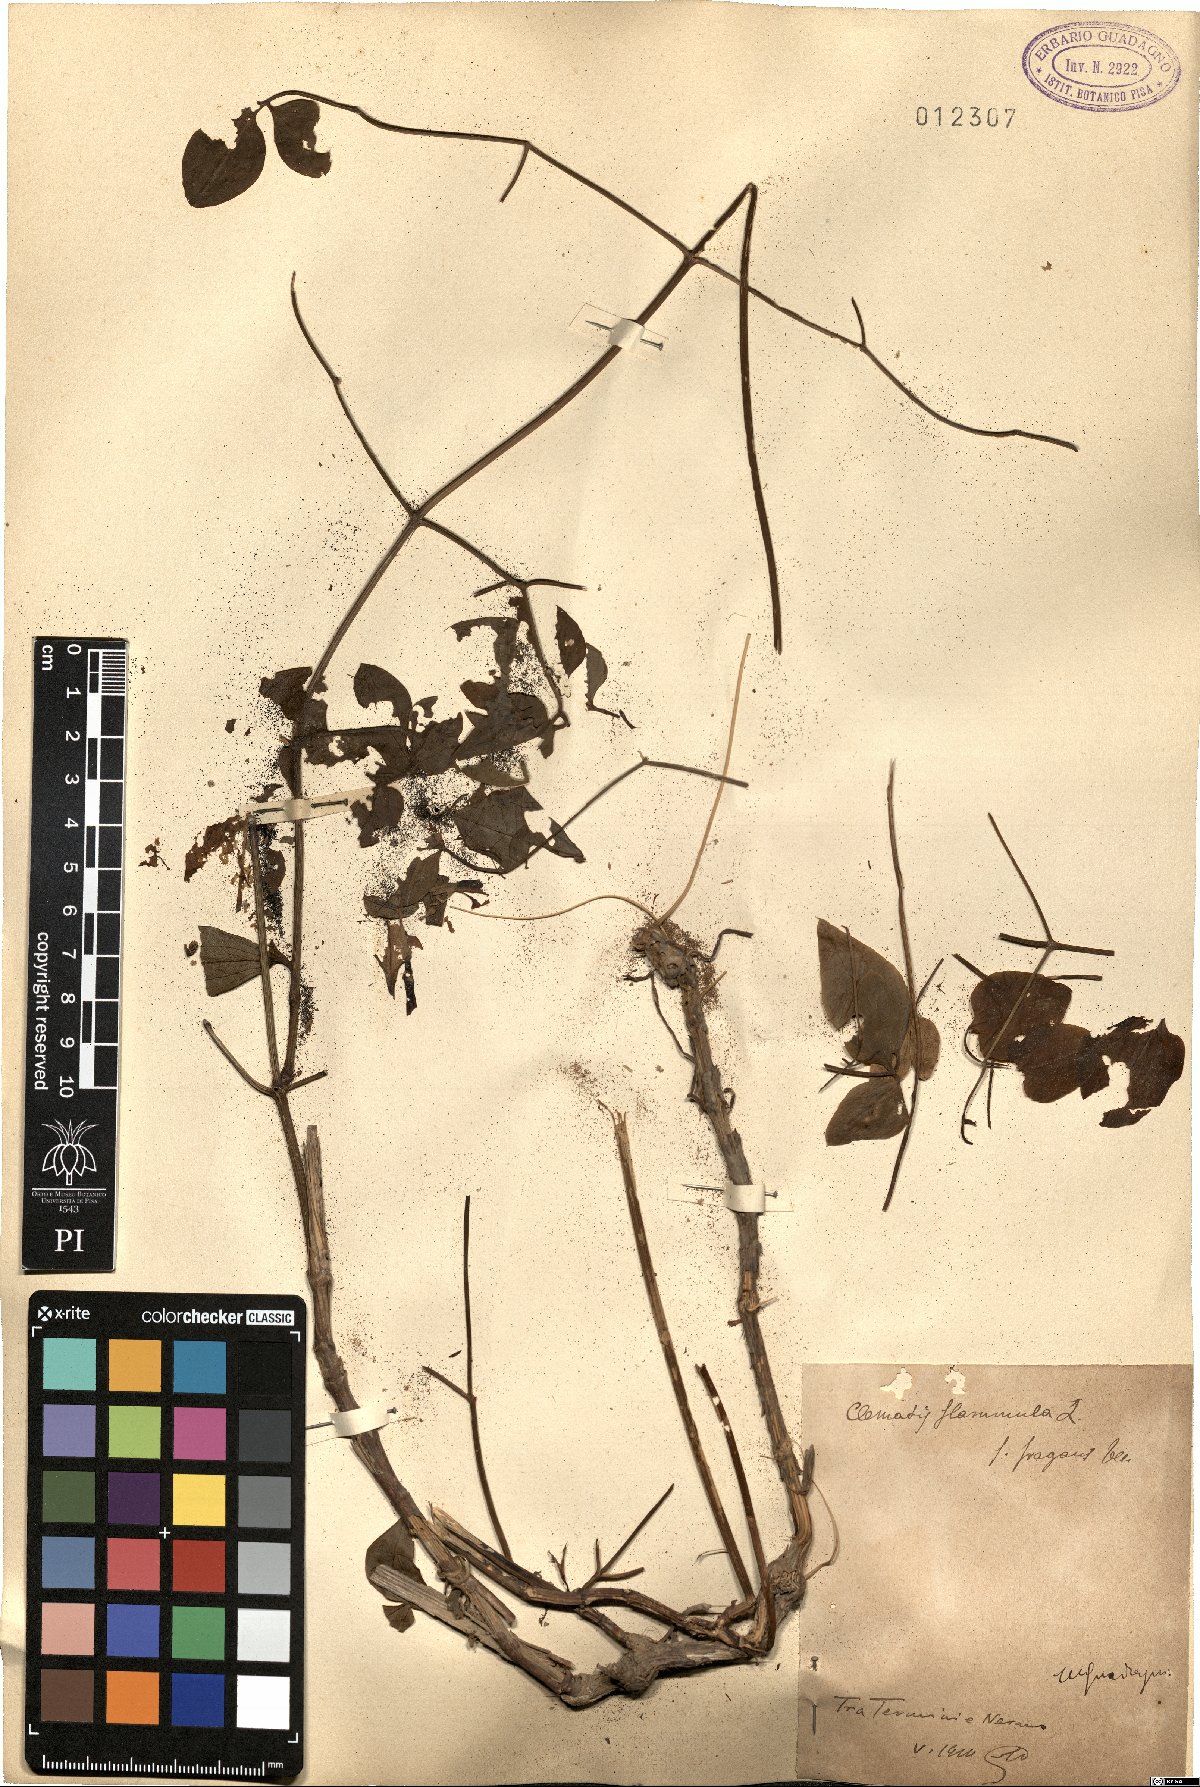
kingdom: Plantae
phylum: Tracheophyta
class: Magnoliopsida
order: Ranunculales
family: Ranunculaceae
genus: Clematis
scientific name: Clematis flammula
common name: Virgin's-bower
